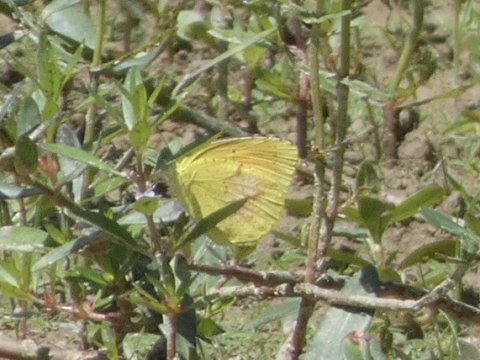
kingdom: Animalia
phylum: Arthropoda
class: Insecta
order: Lepidoptera
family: Pieridae
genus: Pyrisitia
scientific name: Pyrisitia lisa
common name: Little Yellow
